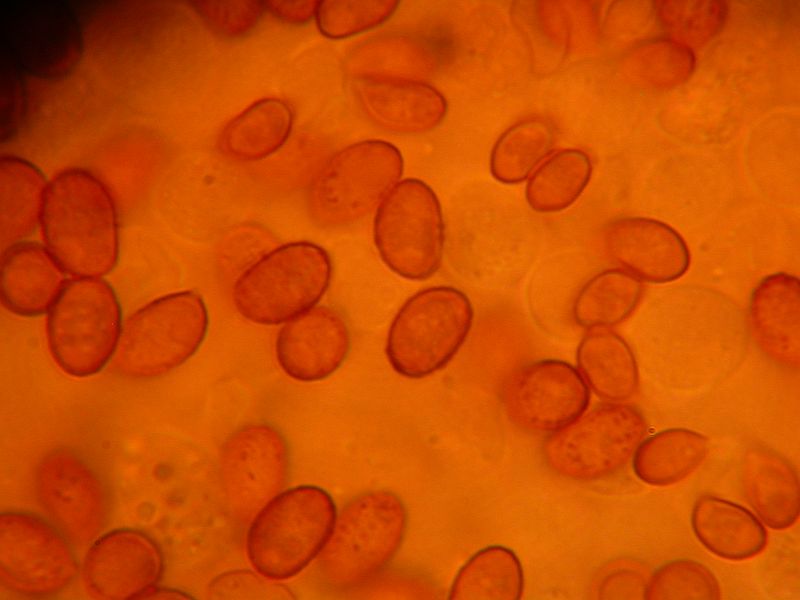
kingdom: Fungi
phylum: Basidiomycota
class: Agaricomycetes
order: Agaricales
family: Cortinariaceae
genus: Cortinarius
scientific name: Cortinarius
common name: hvidægget slørhat
